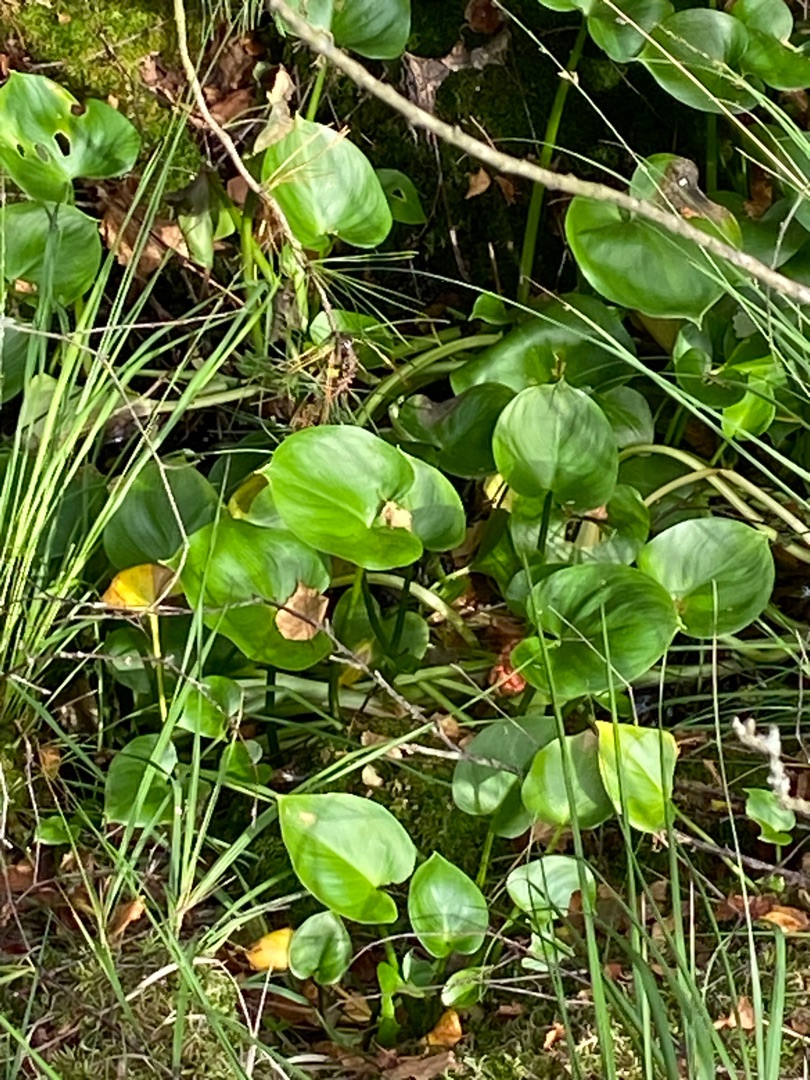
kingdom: Plantae
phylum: Tracheophyta
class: Liliopsida
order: Alismatales
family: Araceae
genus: Calla
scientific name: Calla palustris
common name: Kærmysse
